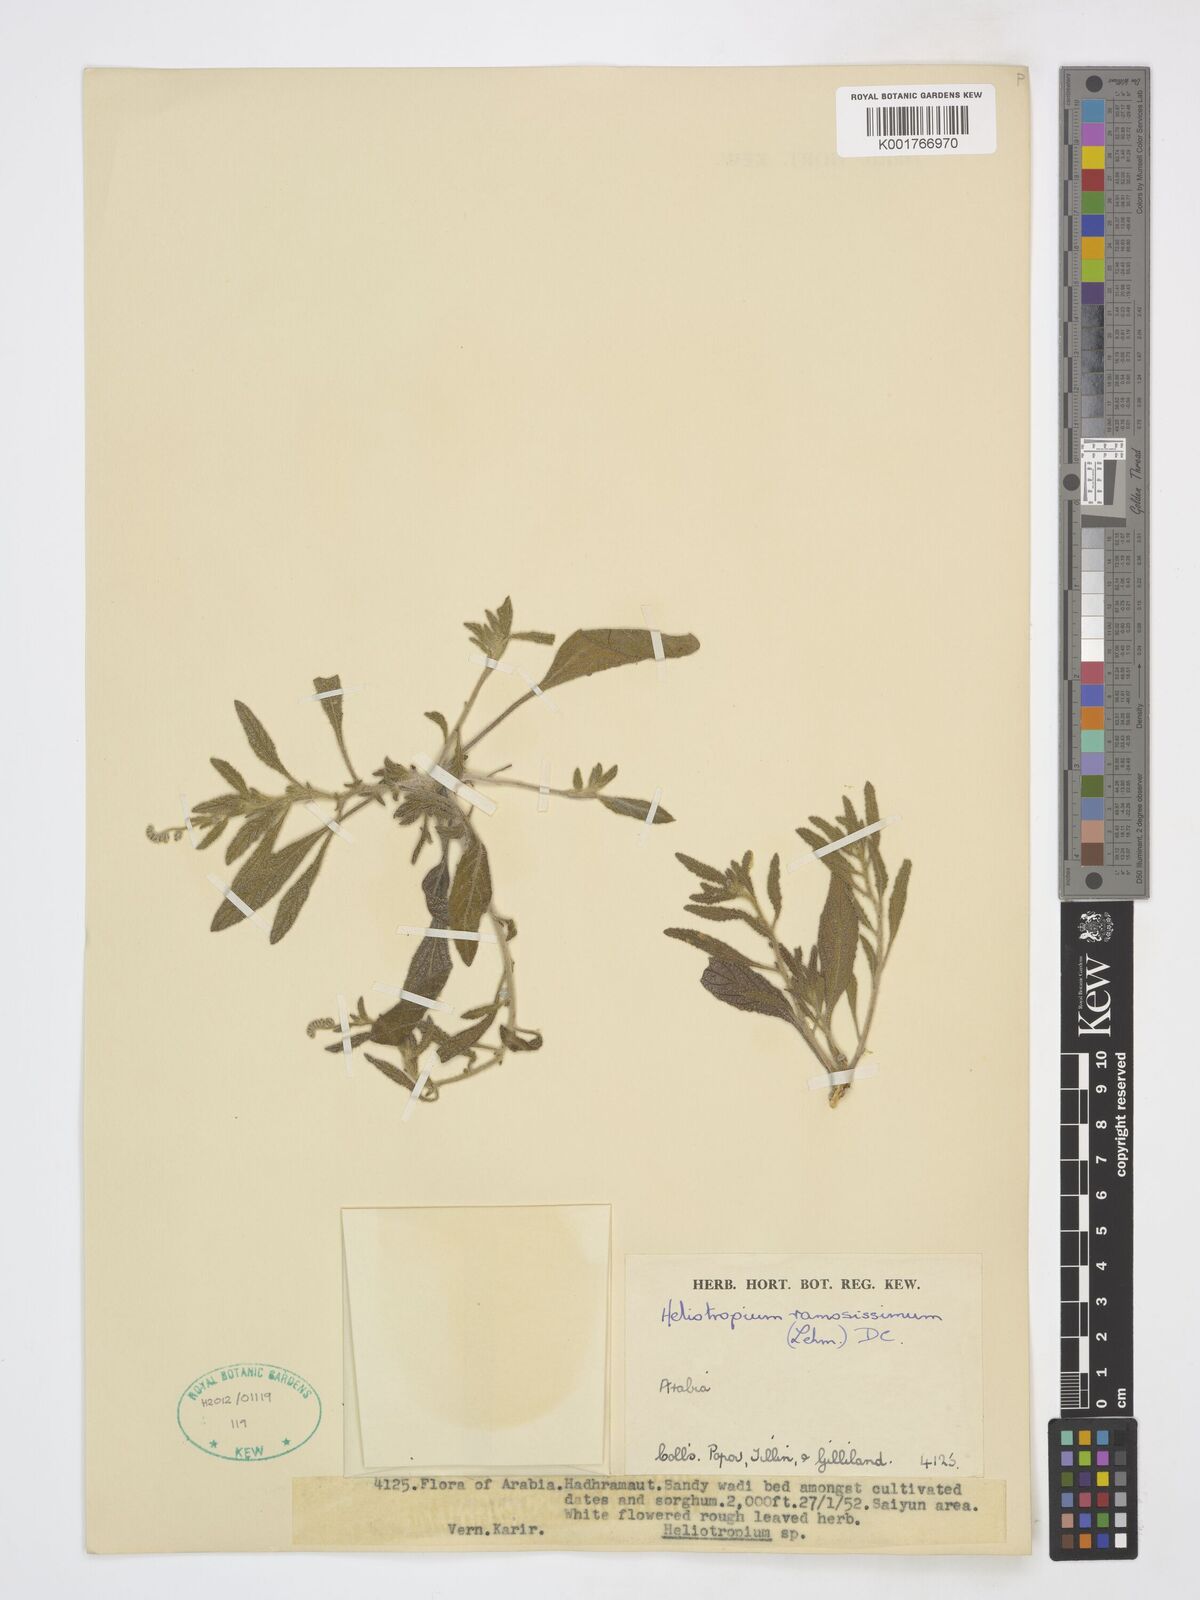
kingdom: Plantae
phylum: Tracheophyta
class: Magnoliopsida
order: Boraginales
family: Heliotropiaceae
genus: Heliotropium
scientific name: Heliotropium ramosissimum
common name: Wavy heliotrope
